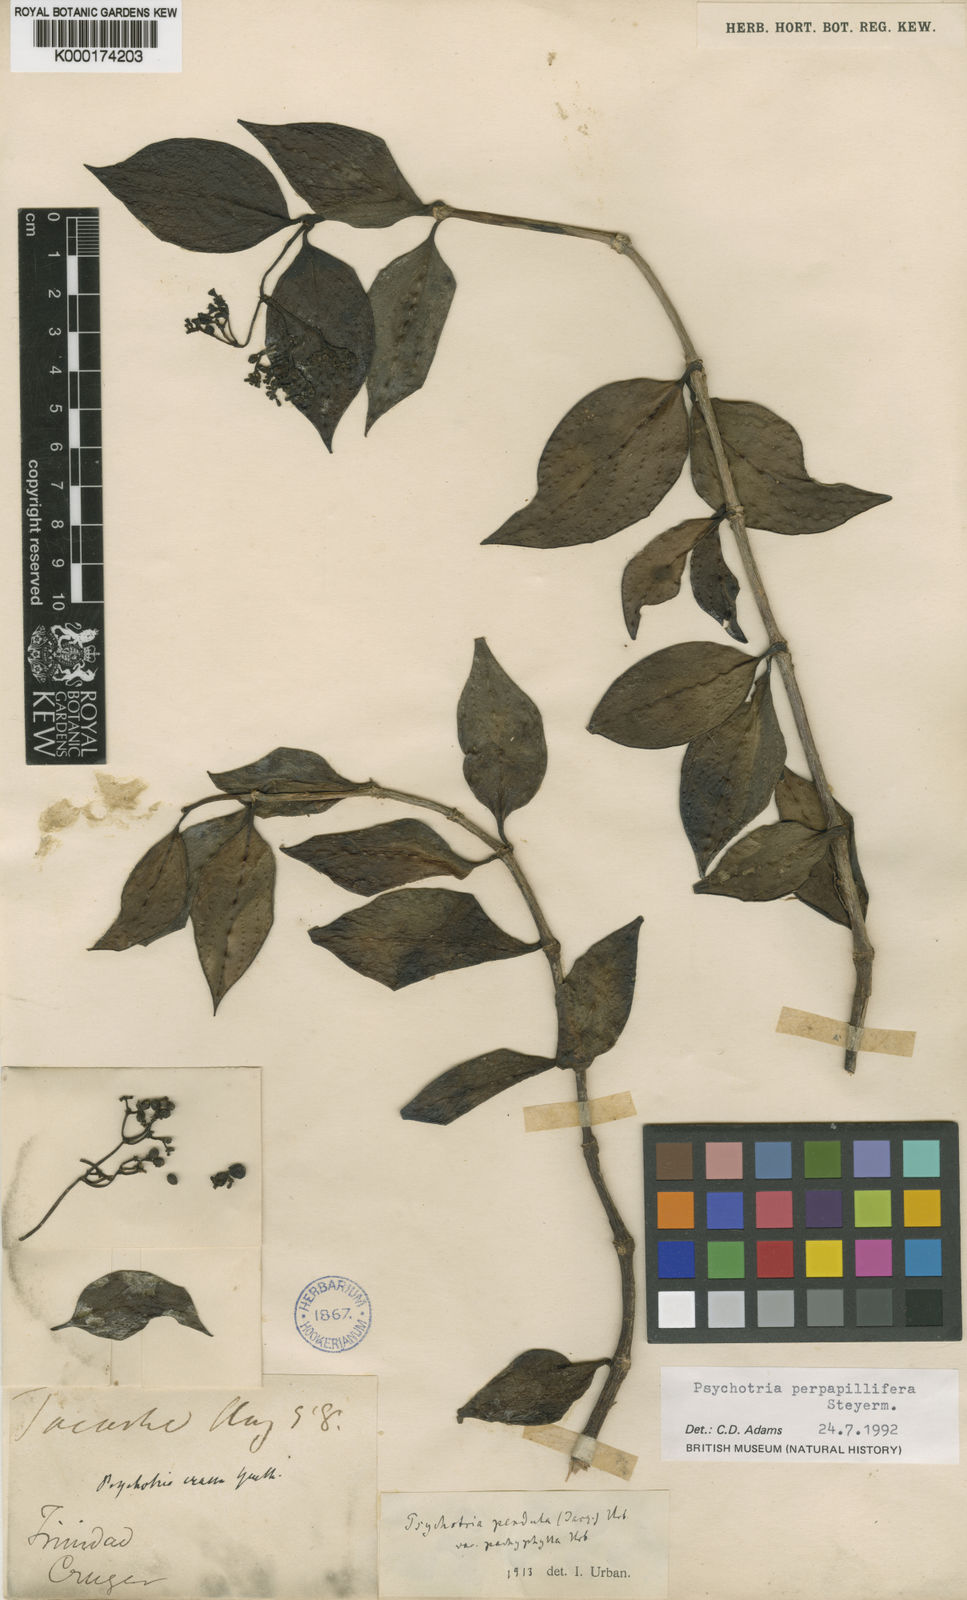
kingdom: Plantae
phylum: Tracheophyta
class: Magnoliopsida
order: Gentianales
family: Rubiaceae
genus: Notopleura
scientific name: Notopleura perpapillifera
